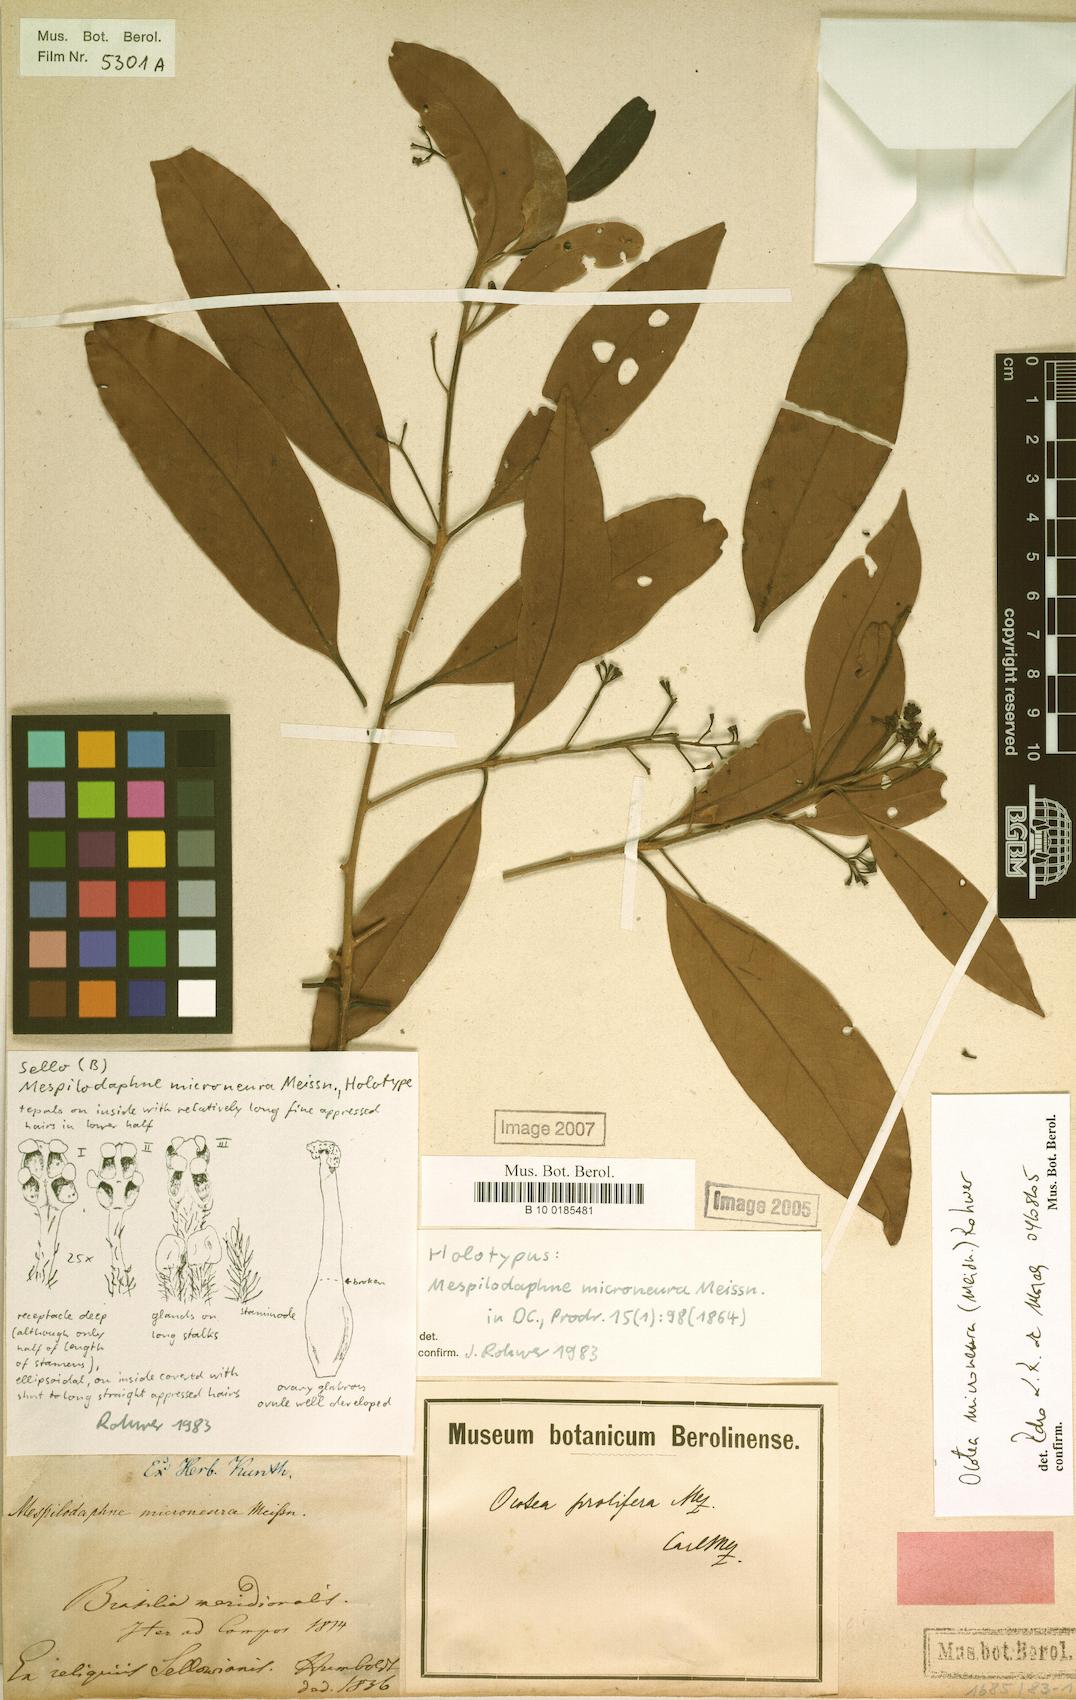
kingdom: Plantae
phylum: Tracheophyta
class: Magnoliopsida
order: Laurales
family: Lauraceae
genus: Mespilodaphne
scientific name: Mespilodaphne microneura
